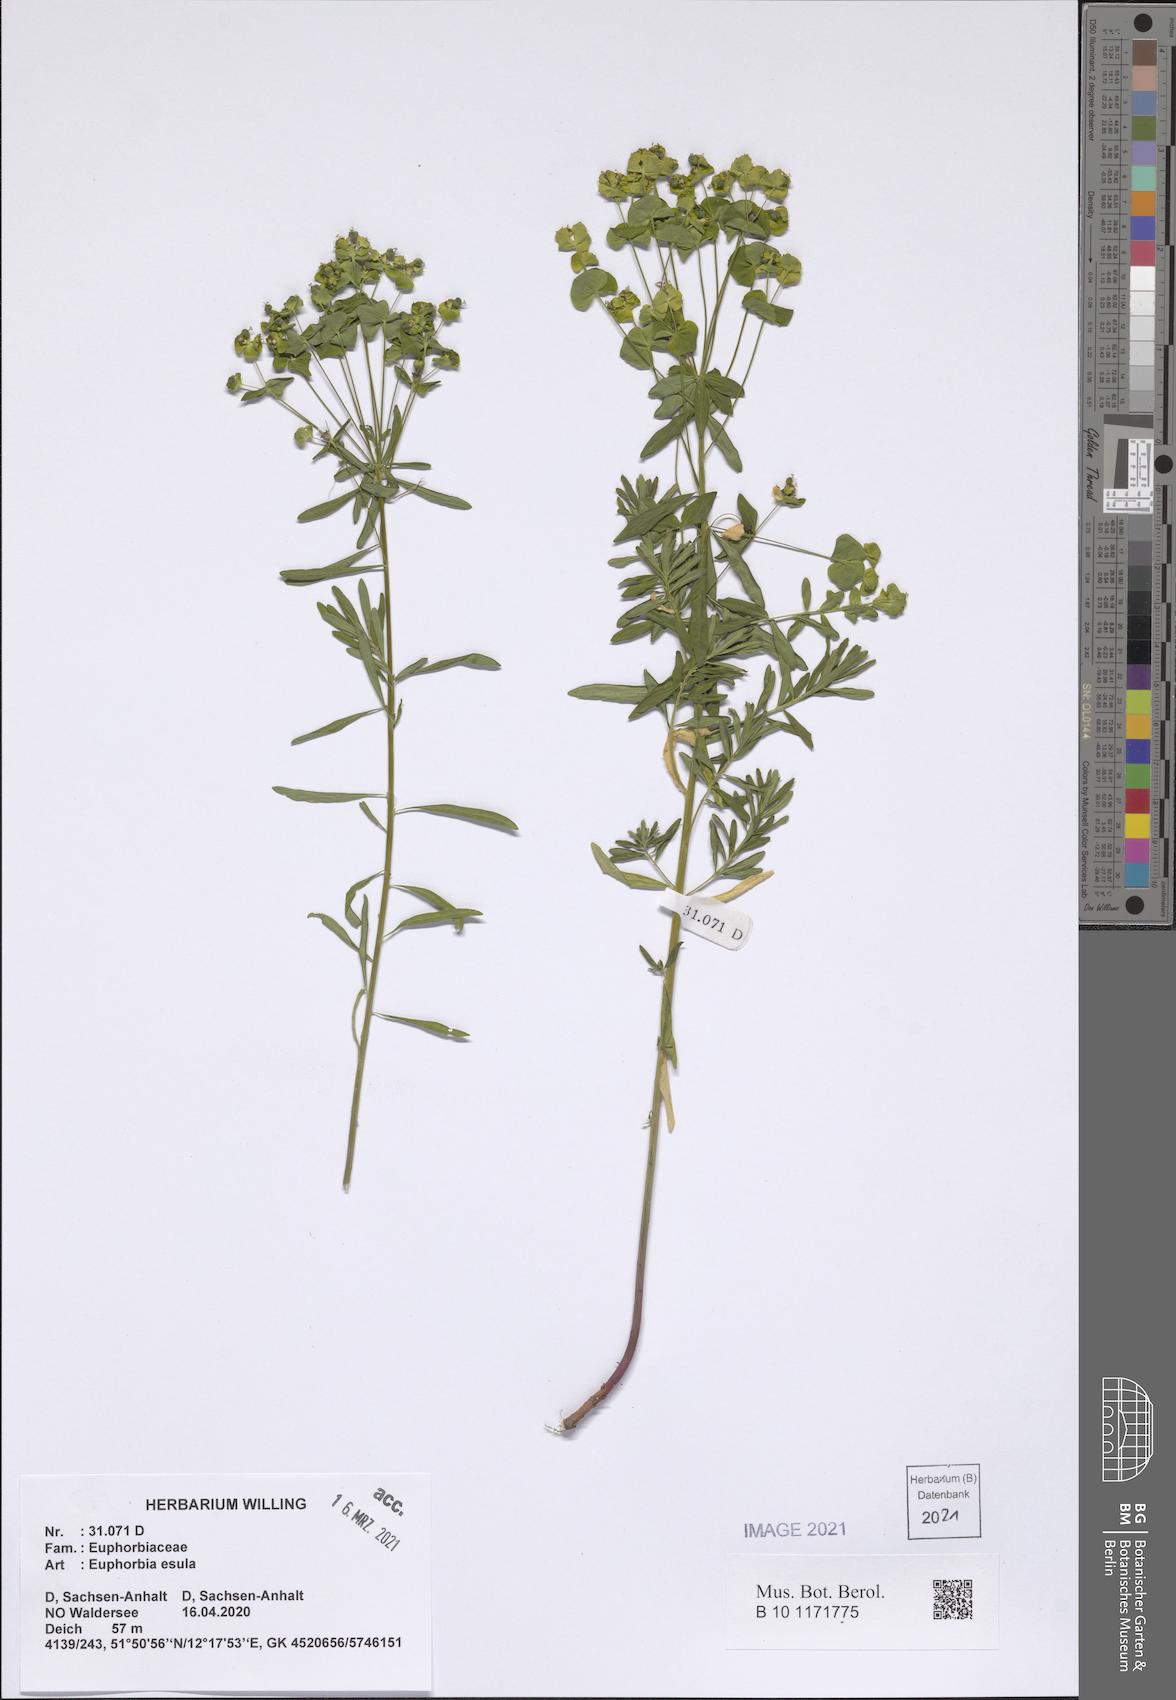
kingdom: Plantae
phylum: Tracheophyta
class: Magnoliopsida
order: Malpighiales
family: Euphorbiaceae
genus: Euphorbia
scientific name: Euphorbia esula
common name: Leafy spurge
